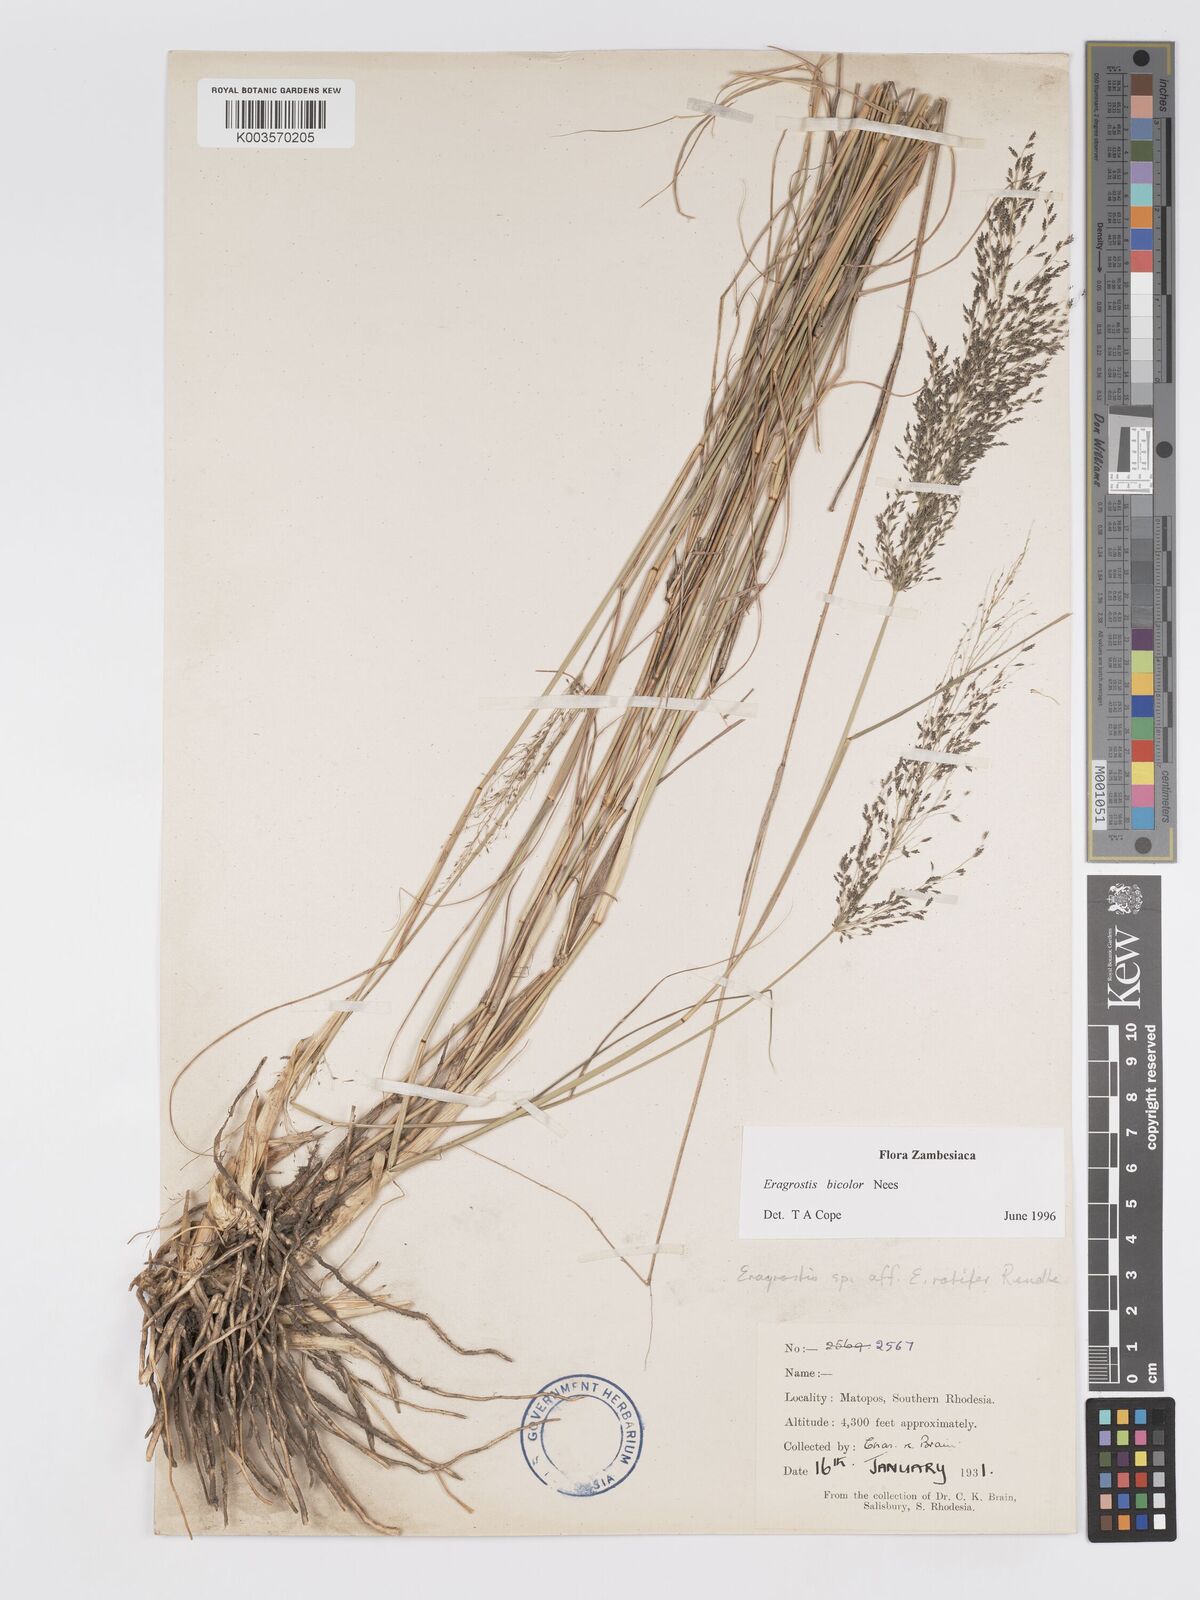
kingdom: Plantae
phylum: Tracheophyta
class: Liliopsida
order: Poales
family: Poaceae
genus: Eragrostis
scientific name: Eragrostis bicolor
